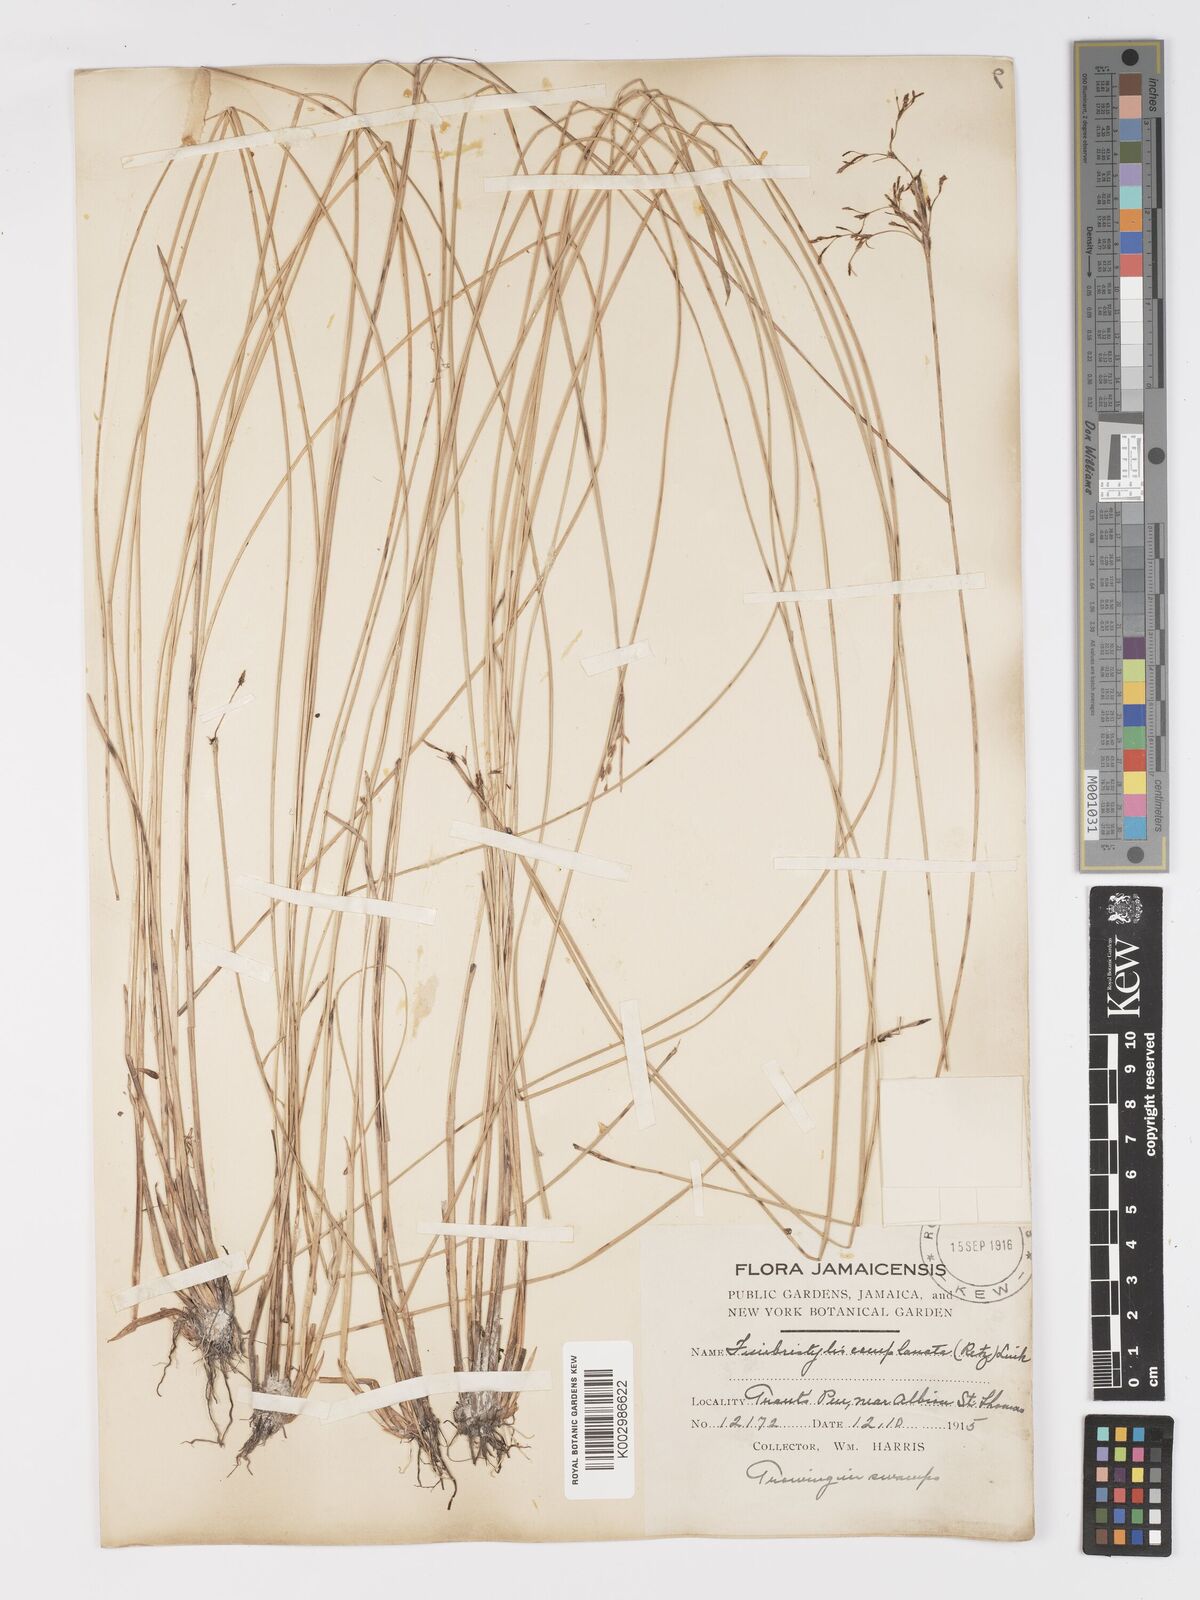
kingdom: Plantae
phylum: Tracheophyta
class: Liliopsida
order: Poales
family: Cyperaceae
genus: Fimbristylis
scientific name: Fimbristylis complanata
